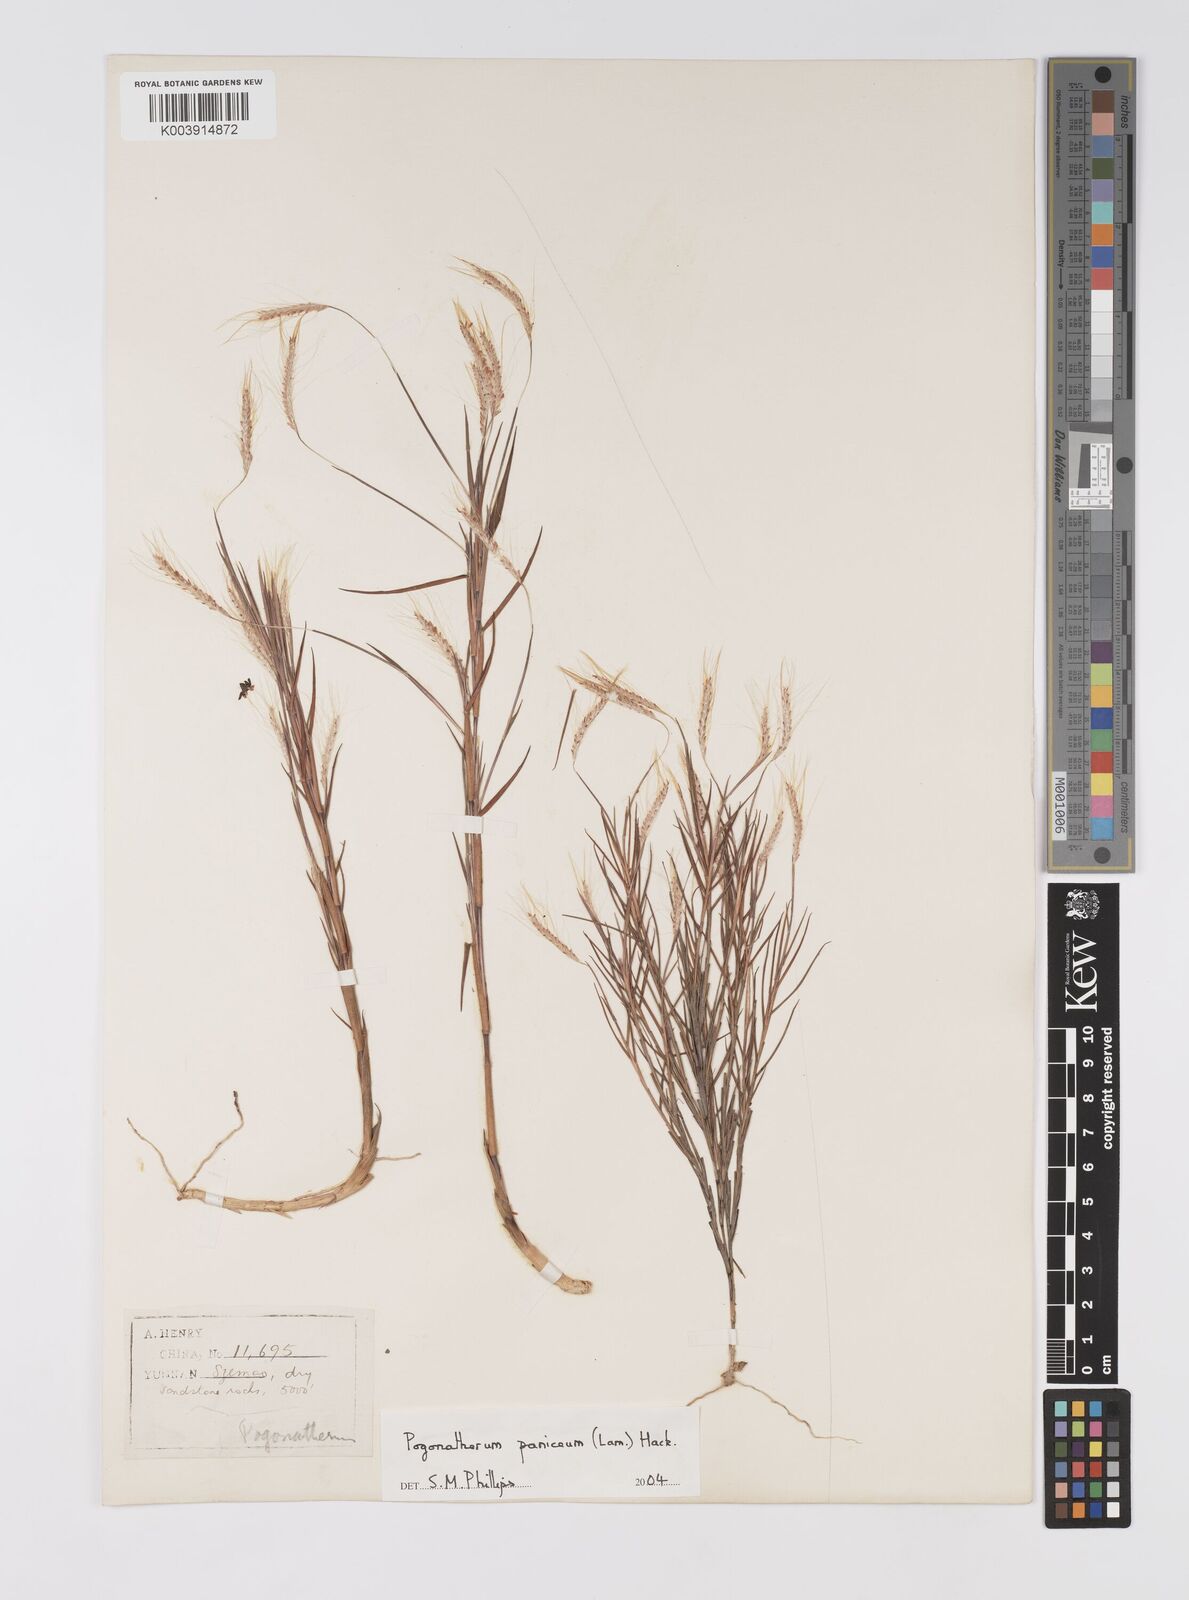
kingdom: Plantae
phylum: Tracheophyta
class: Liliopsida
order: Poales
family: Poaceae
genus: Pogonatherum
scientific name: Pogonatherum paniceum
